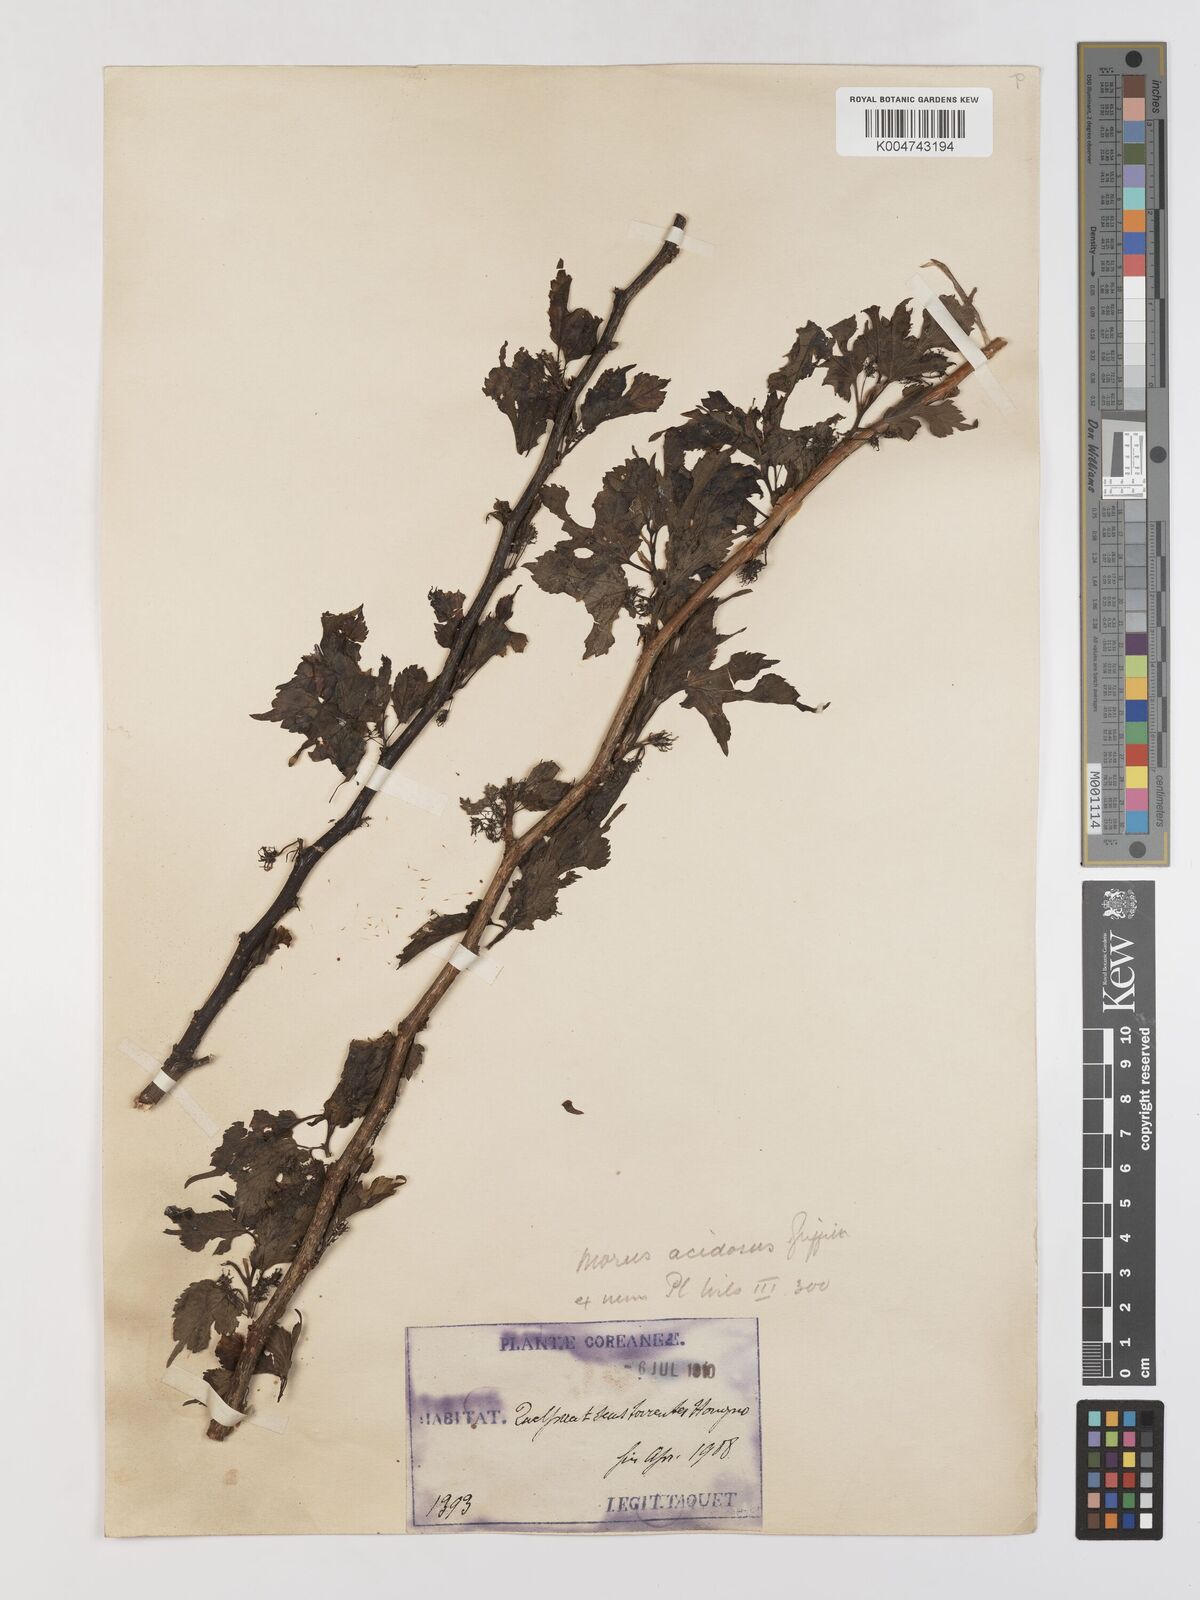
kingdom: Plantae
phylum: Tracheophyta
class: Magnoliopsida
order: Rosales
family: Moraceae
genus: Morus
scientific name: Morus indica
